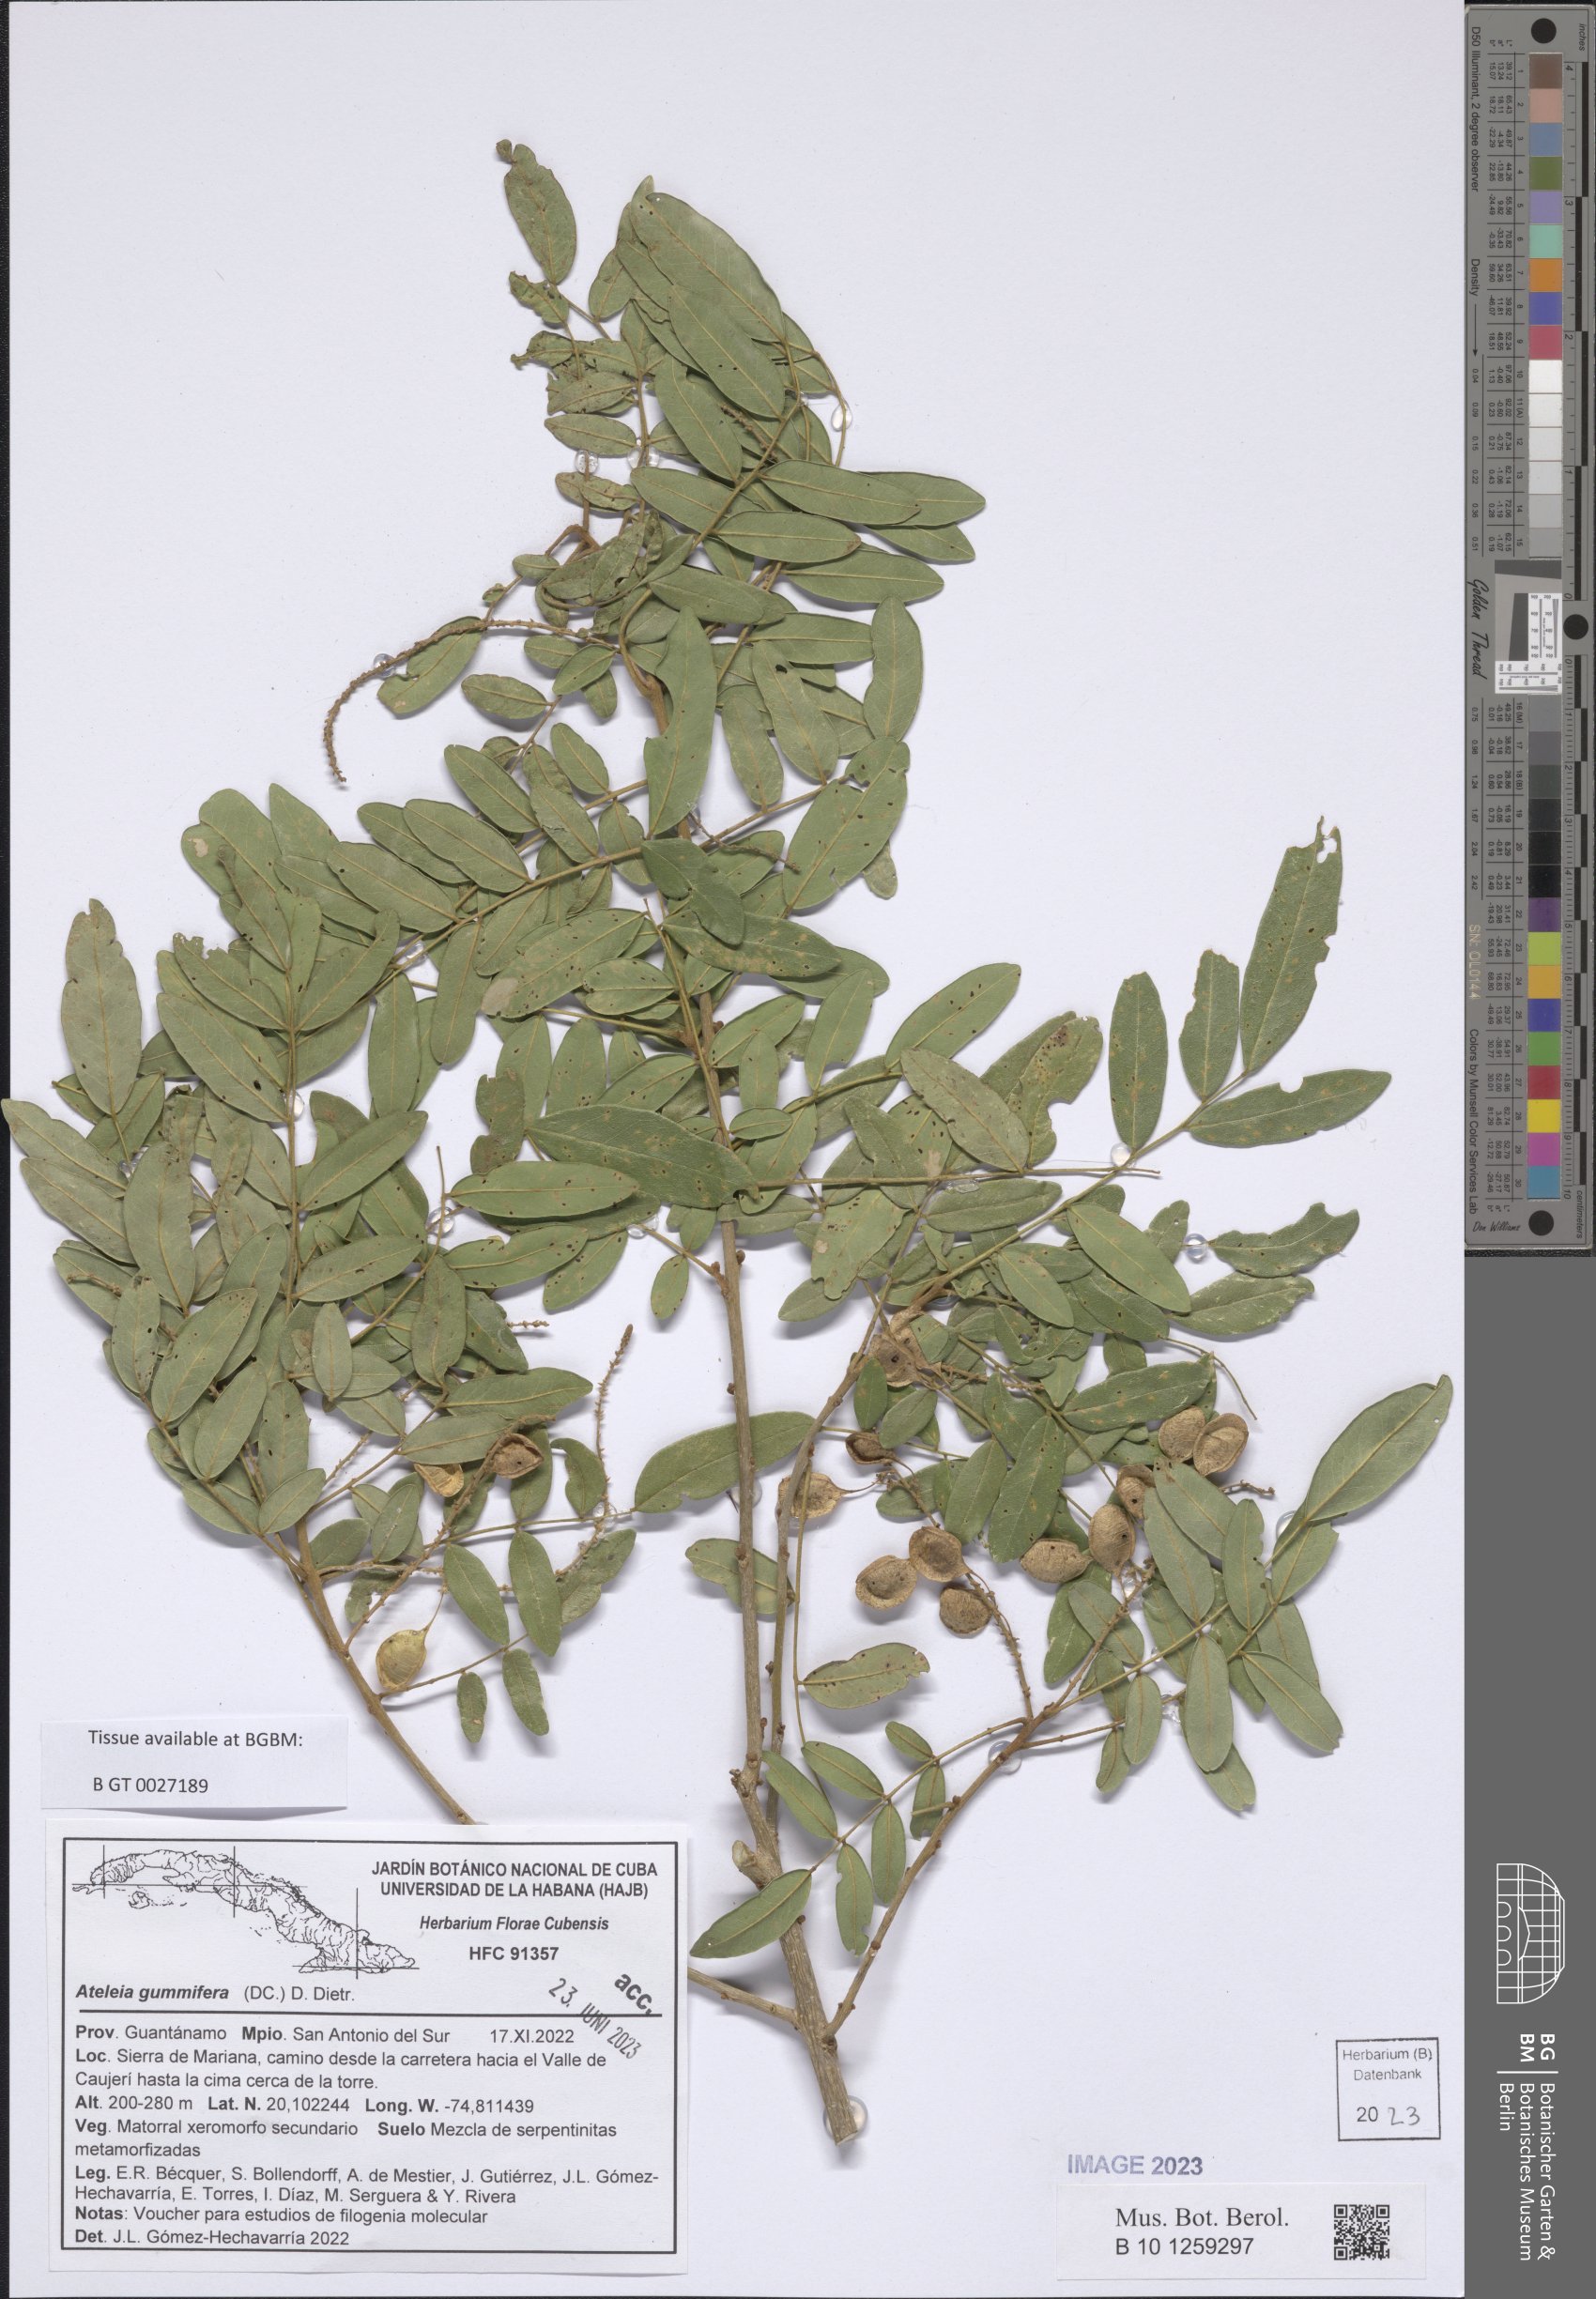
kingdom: Plantae
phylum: Tracheophyta
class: Magnoliopsida
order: Fabales
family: Fabaceae
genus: Ateleia
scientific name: Ateleia gummifera
